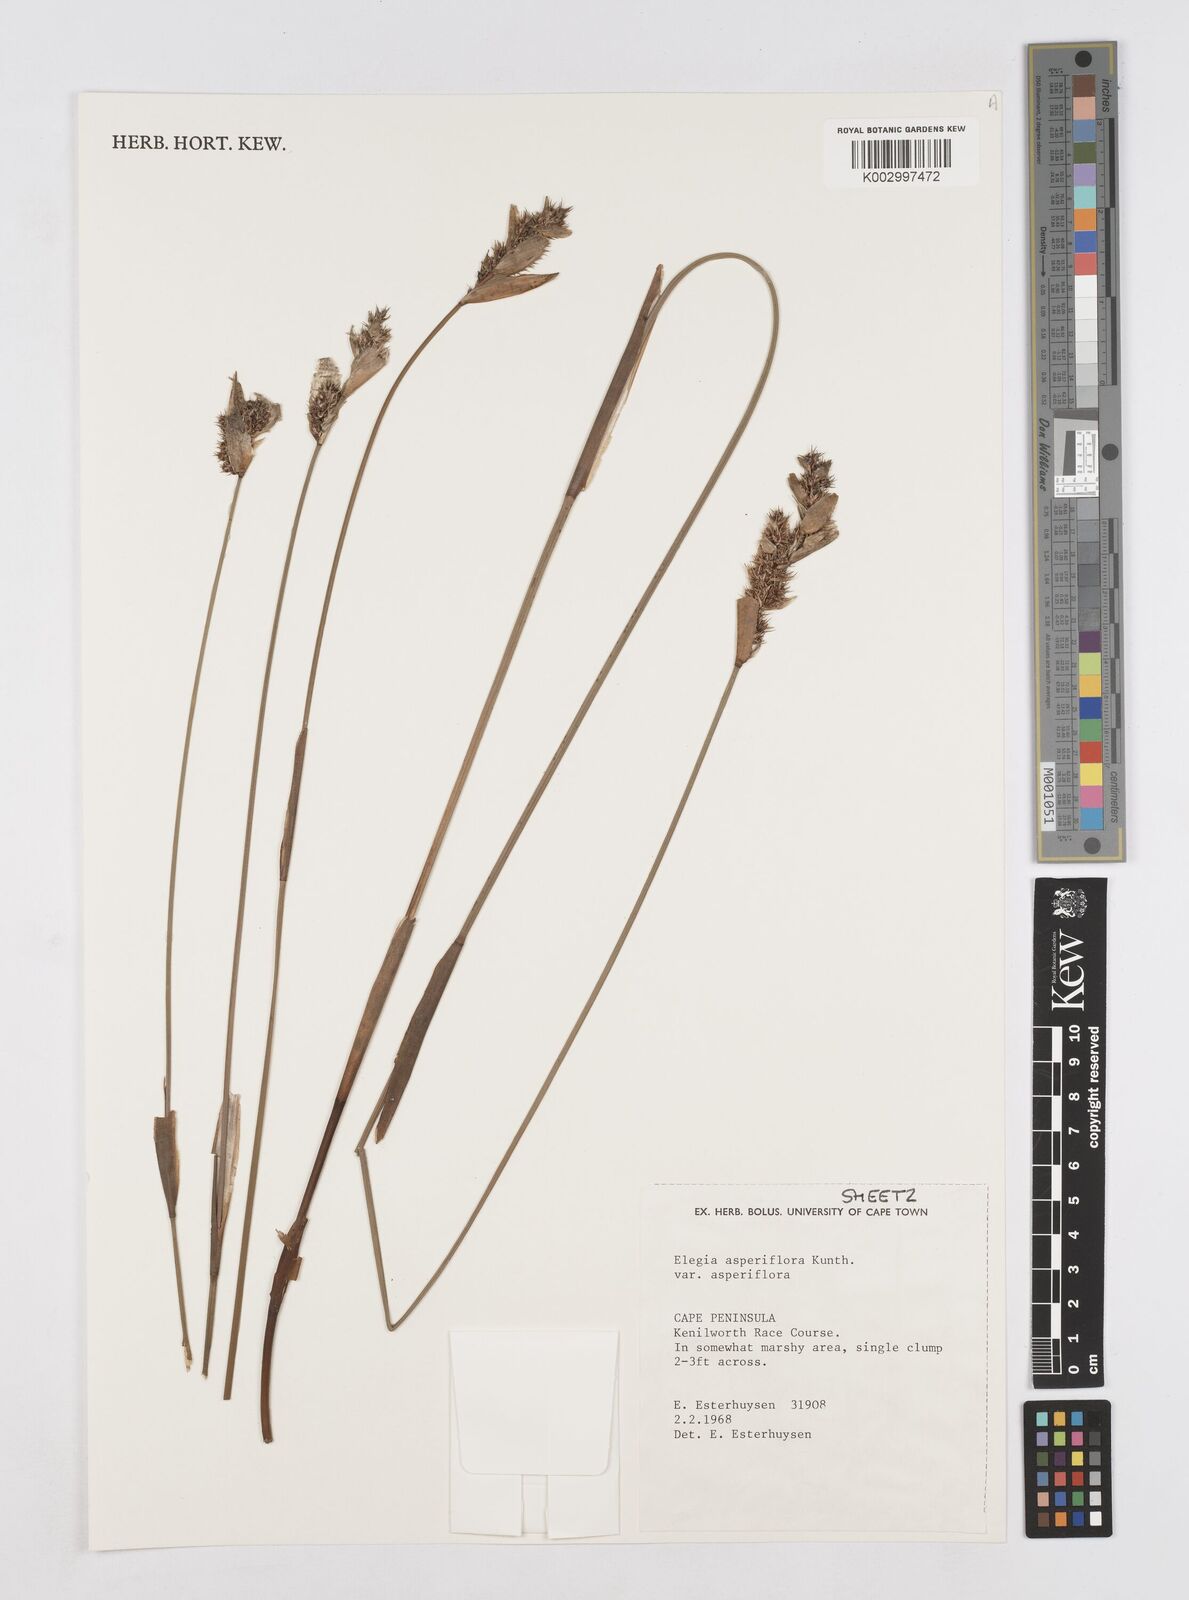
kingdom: Plantae
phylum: Tracheophyta
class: Liliopsida
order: Poales
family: Restionaceae
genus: Elegia
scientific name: Elegia asperiflora
